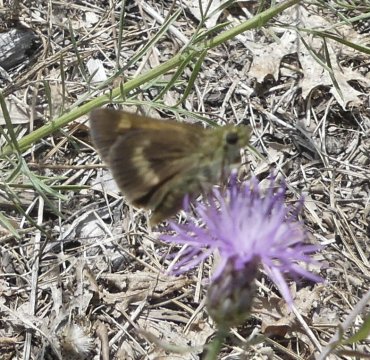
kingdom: Animalia
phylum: Arthropoda
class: Insecta
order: Lepidoptera
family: Hesperiidae
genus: Polites
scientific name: Polites egeremet
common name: Northern Broken-Dash
